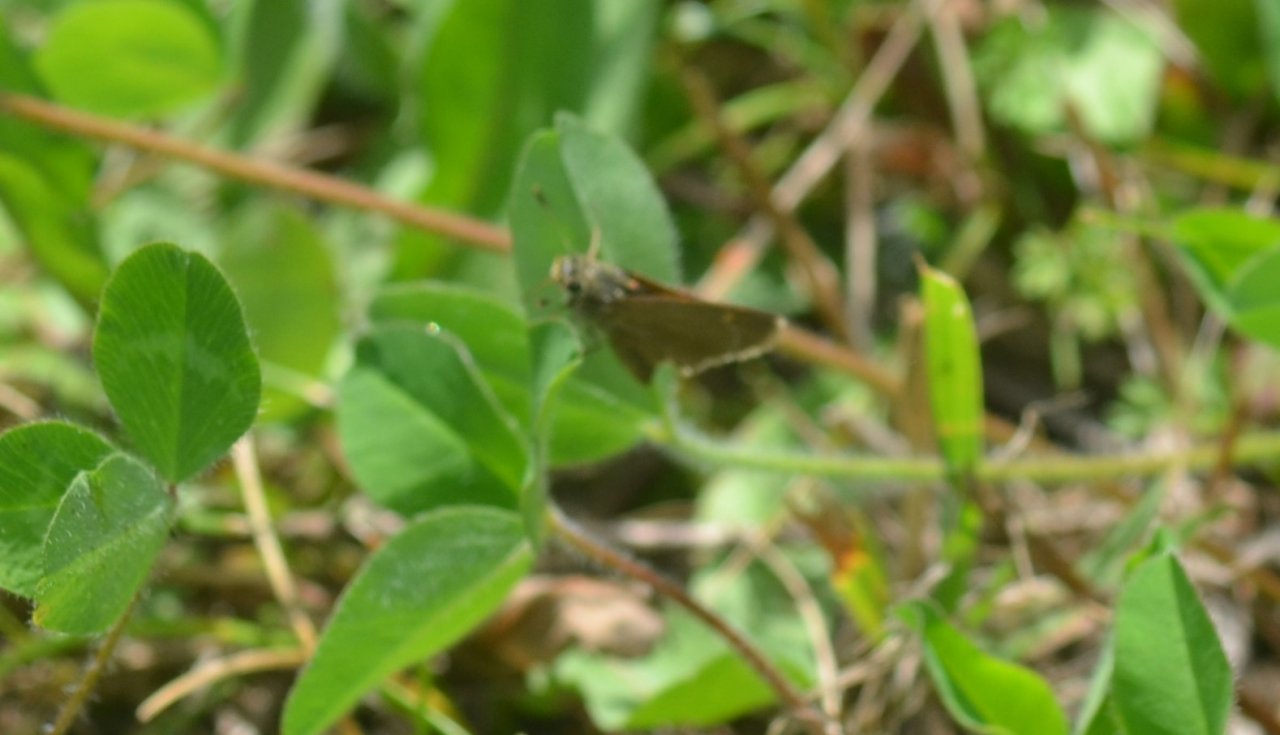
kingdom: Animalia
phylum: Arthropoda
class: Insecta
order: Lepidoptera
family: Hesperiidae
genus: Euphyes
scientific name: Euphyes vestris
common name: Dun Skipper
